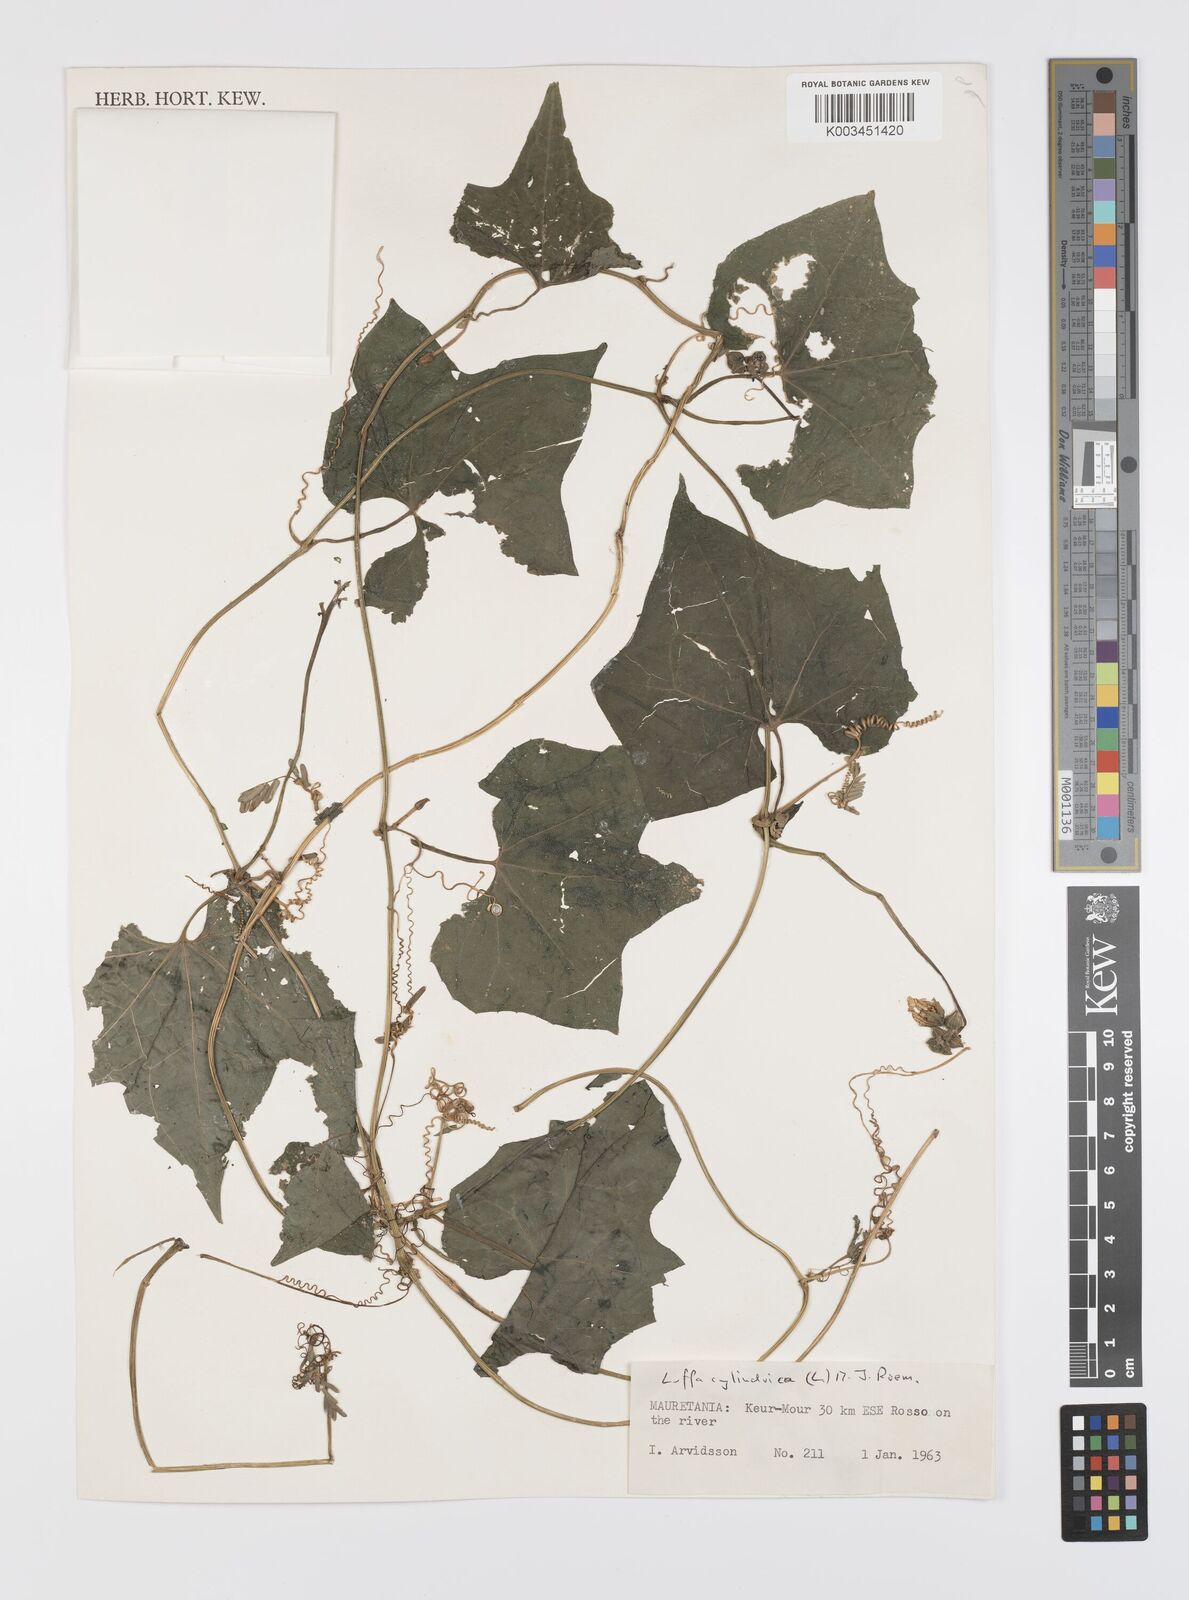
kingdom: Plantae
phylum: Tracheophyta
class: Magnoliopsida
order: Cucurbitales
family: Cucurbitaceae
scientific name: Cucurbitaceae
